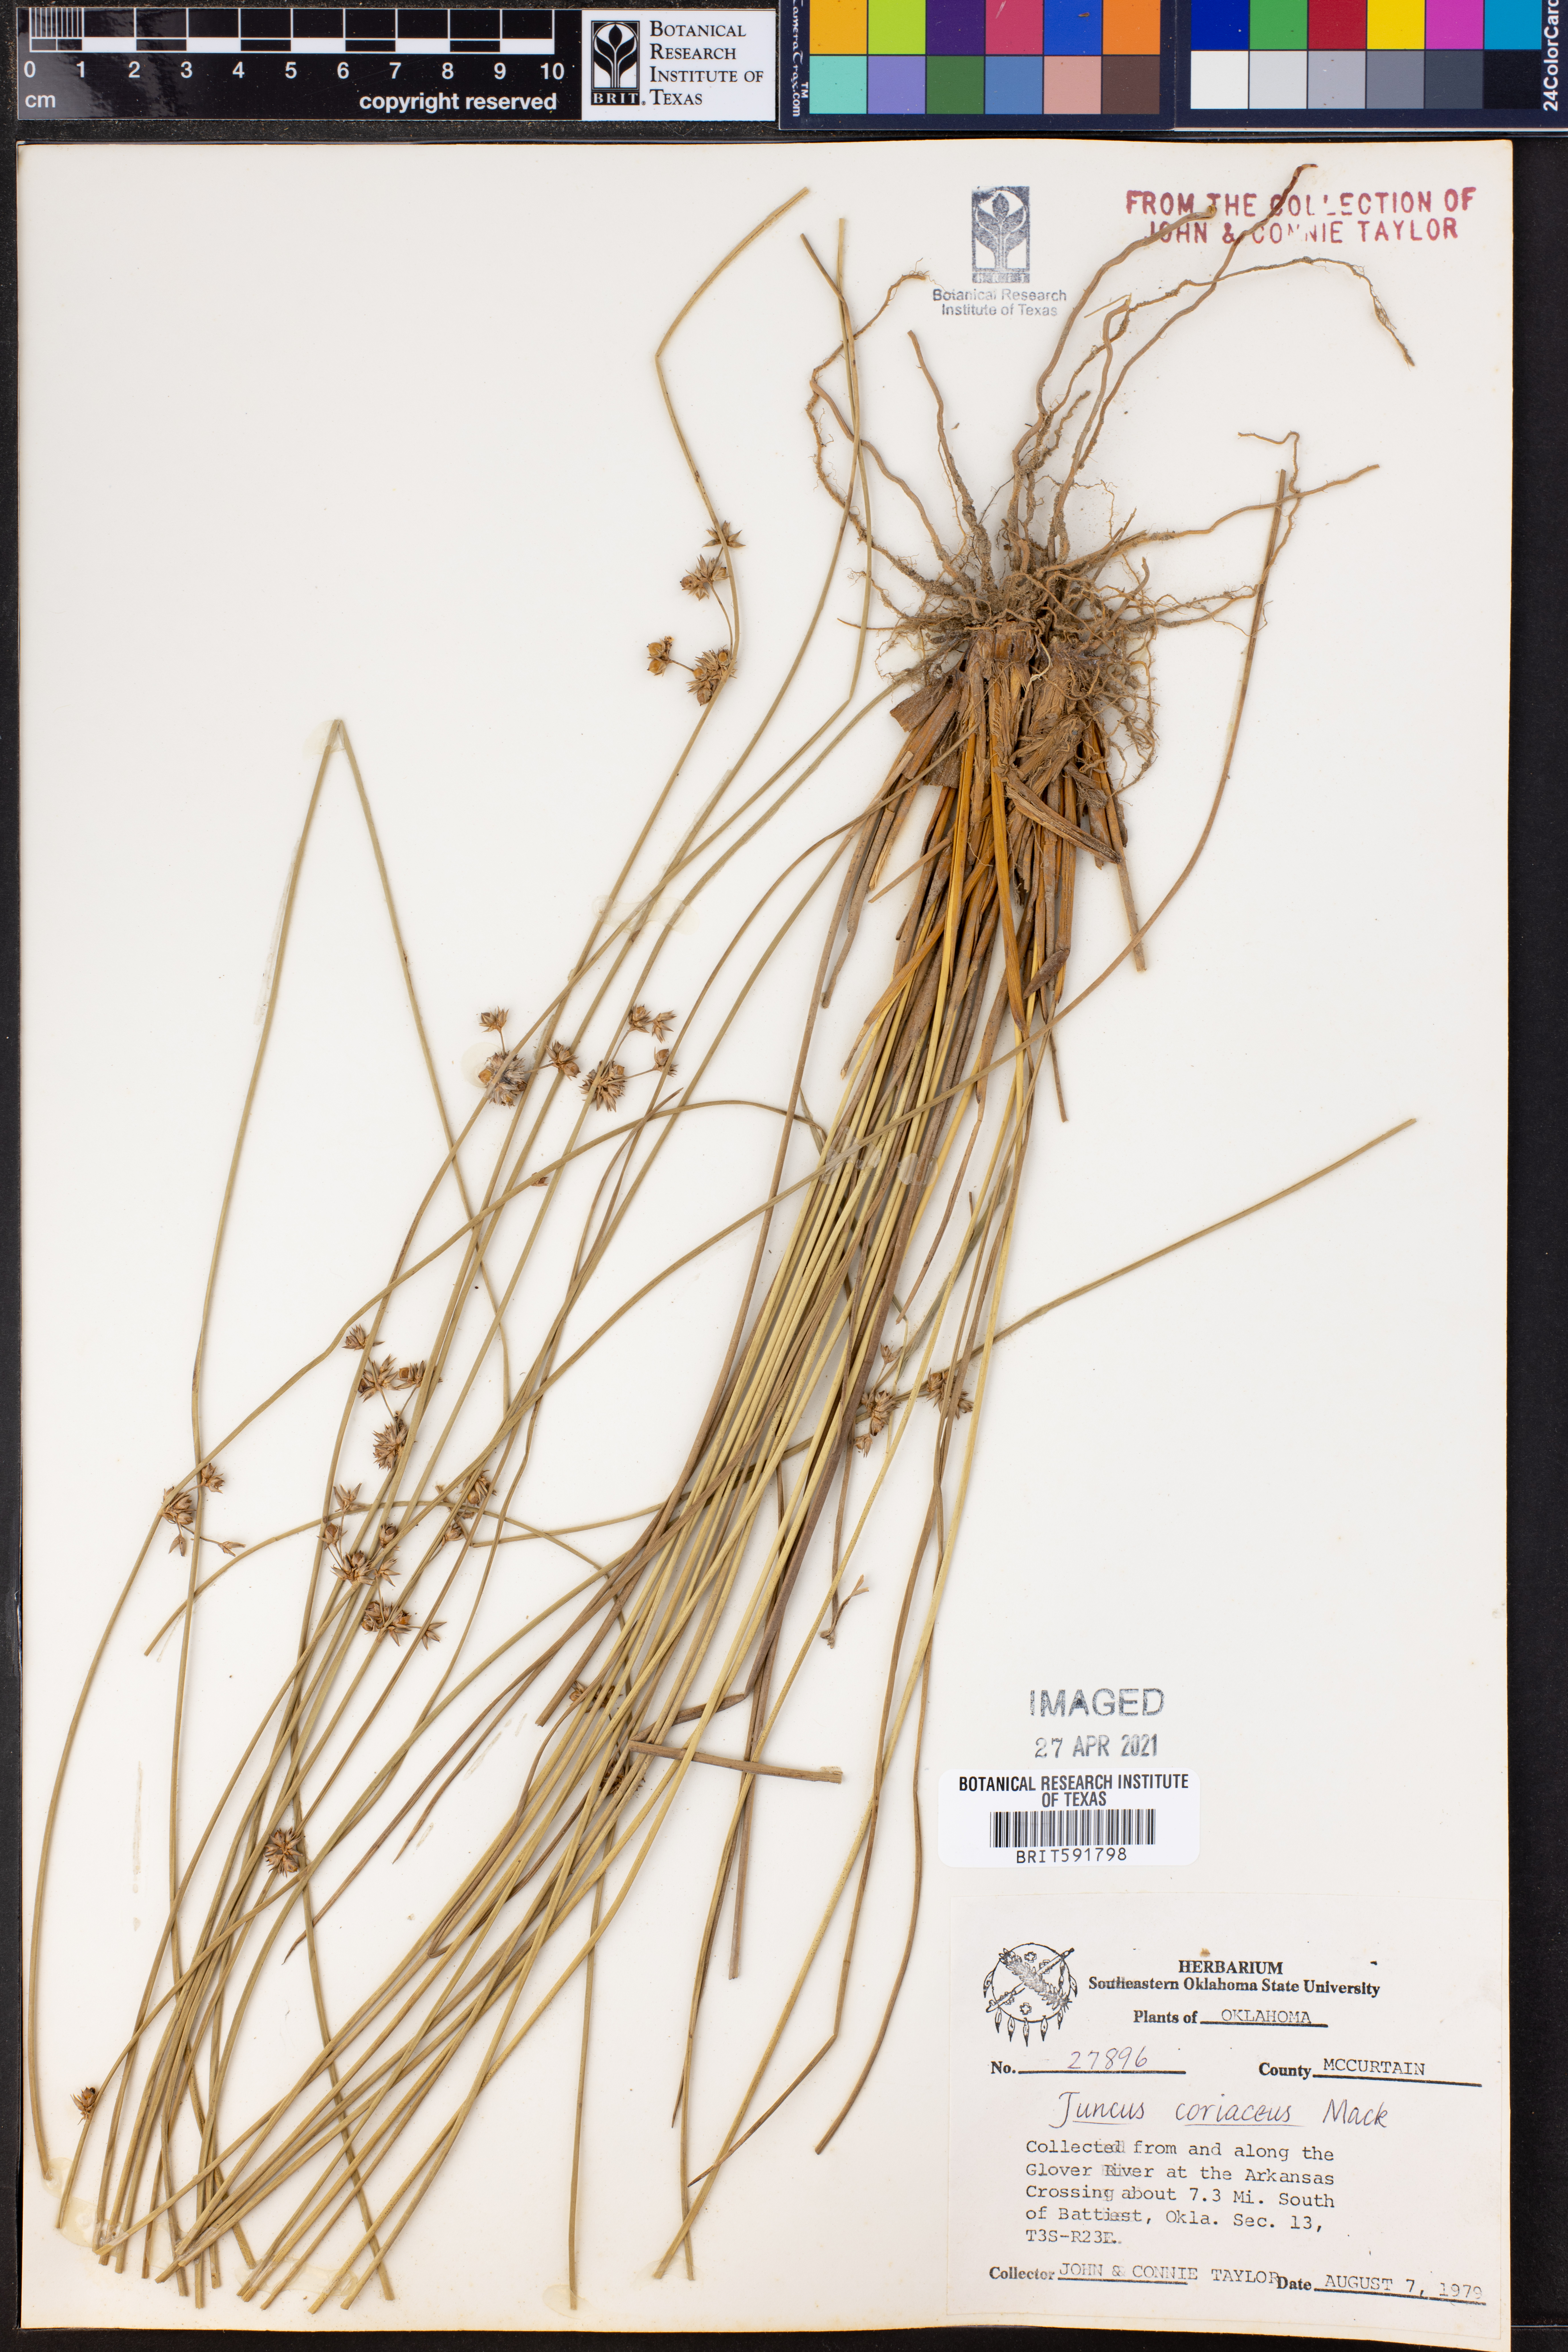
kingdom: Plantae
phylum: Tracheophyta
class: Liliopsida
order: Poales
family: Juncaceae
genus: Juncus
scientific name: Juncus coriaceus
